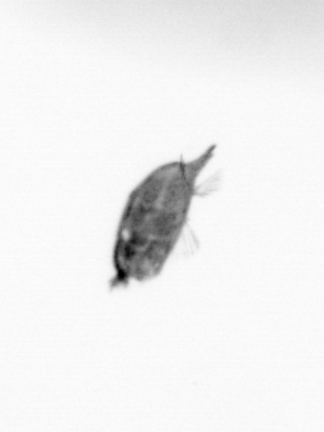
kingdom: Animalia
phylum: Arthropoda
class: Maxillopoda
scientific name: Maxillopoda
